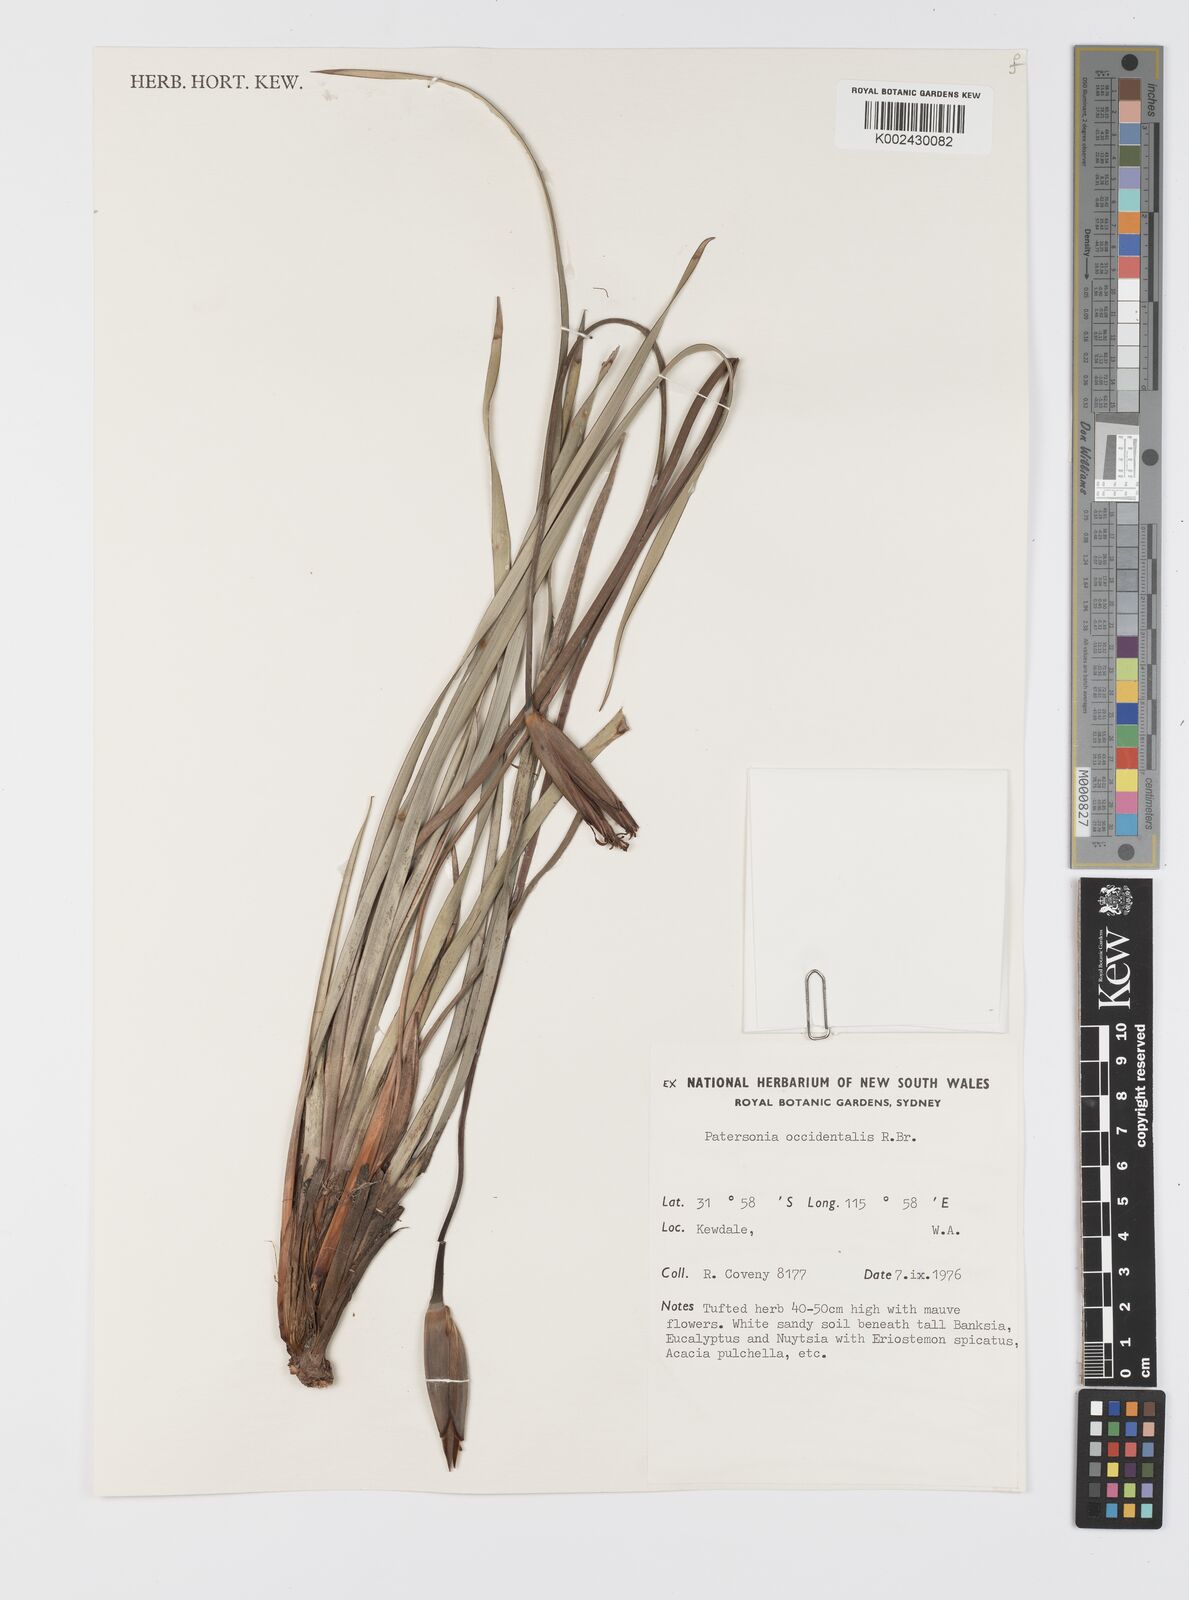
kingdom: Plantae
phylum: Tracheophyta
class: Liliopsida
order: Asparagales
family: Iridaceae
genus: Patersonia
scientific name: Patersonia occidentalis
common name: Long purple-flag
